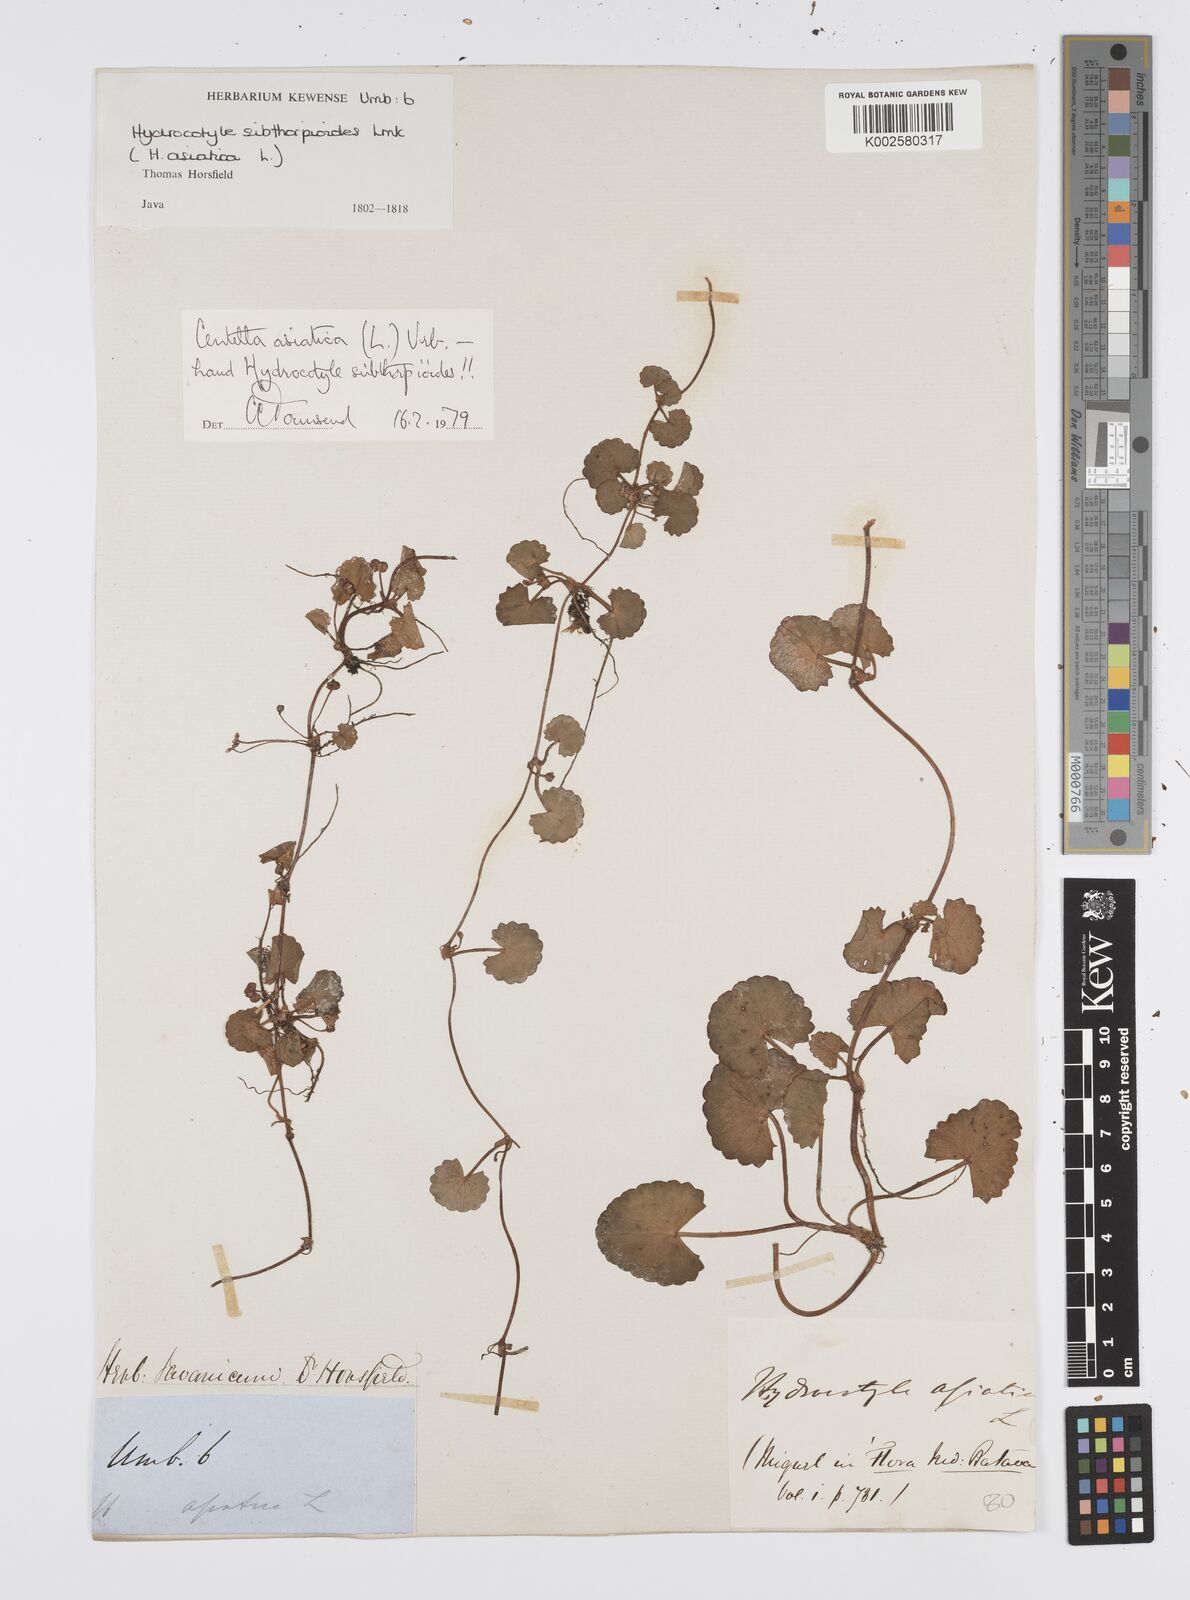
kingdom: Plantae
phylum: Tracheophyta
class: Magnoliopsida
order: Apiales
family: Apiaceae
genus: Centella
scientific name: Centella asiatica
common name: Spadeleaf
